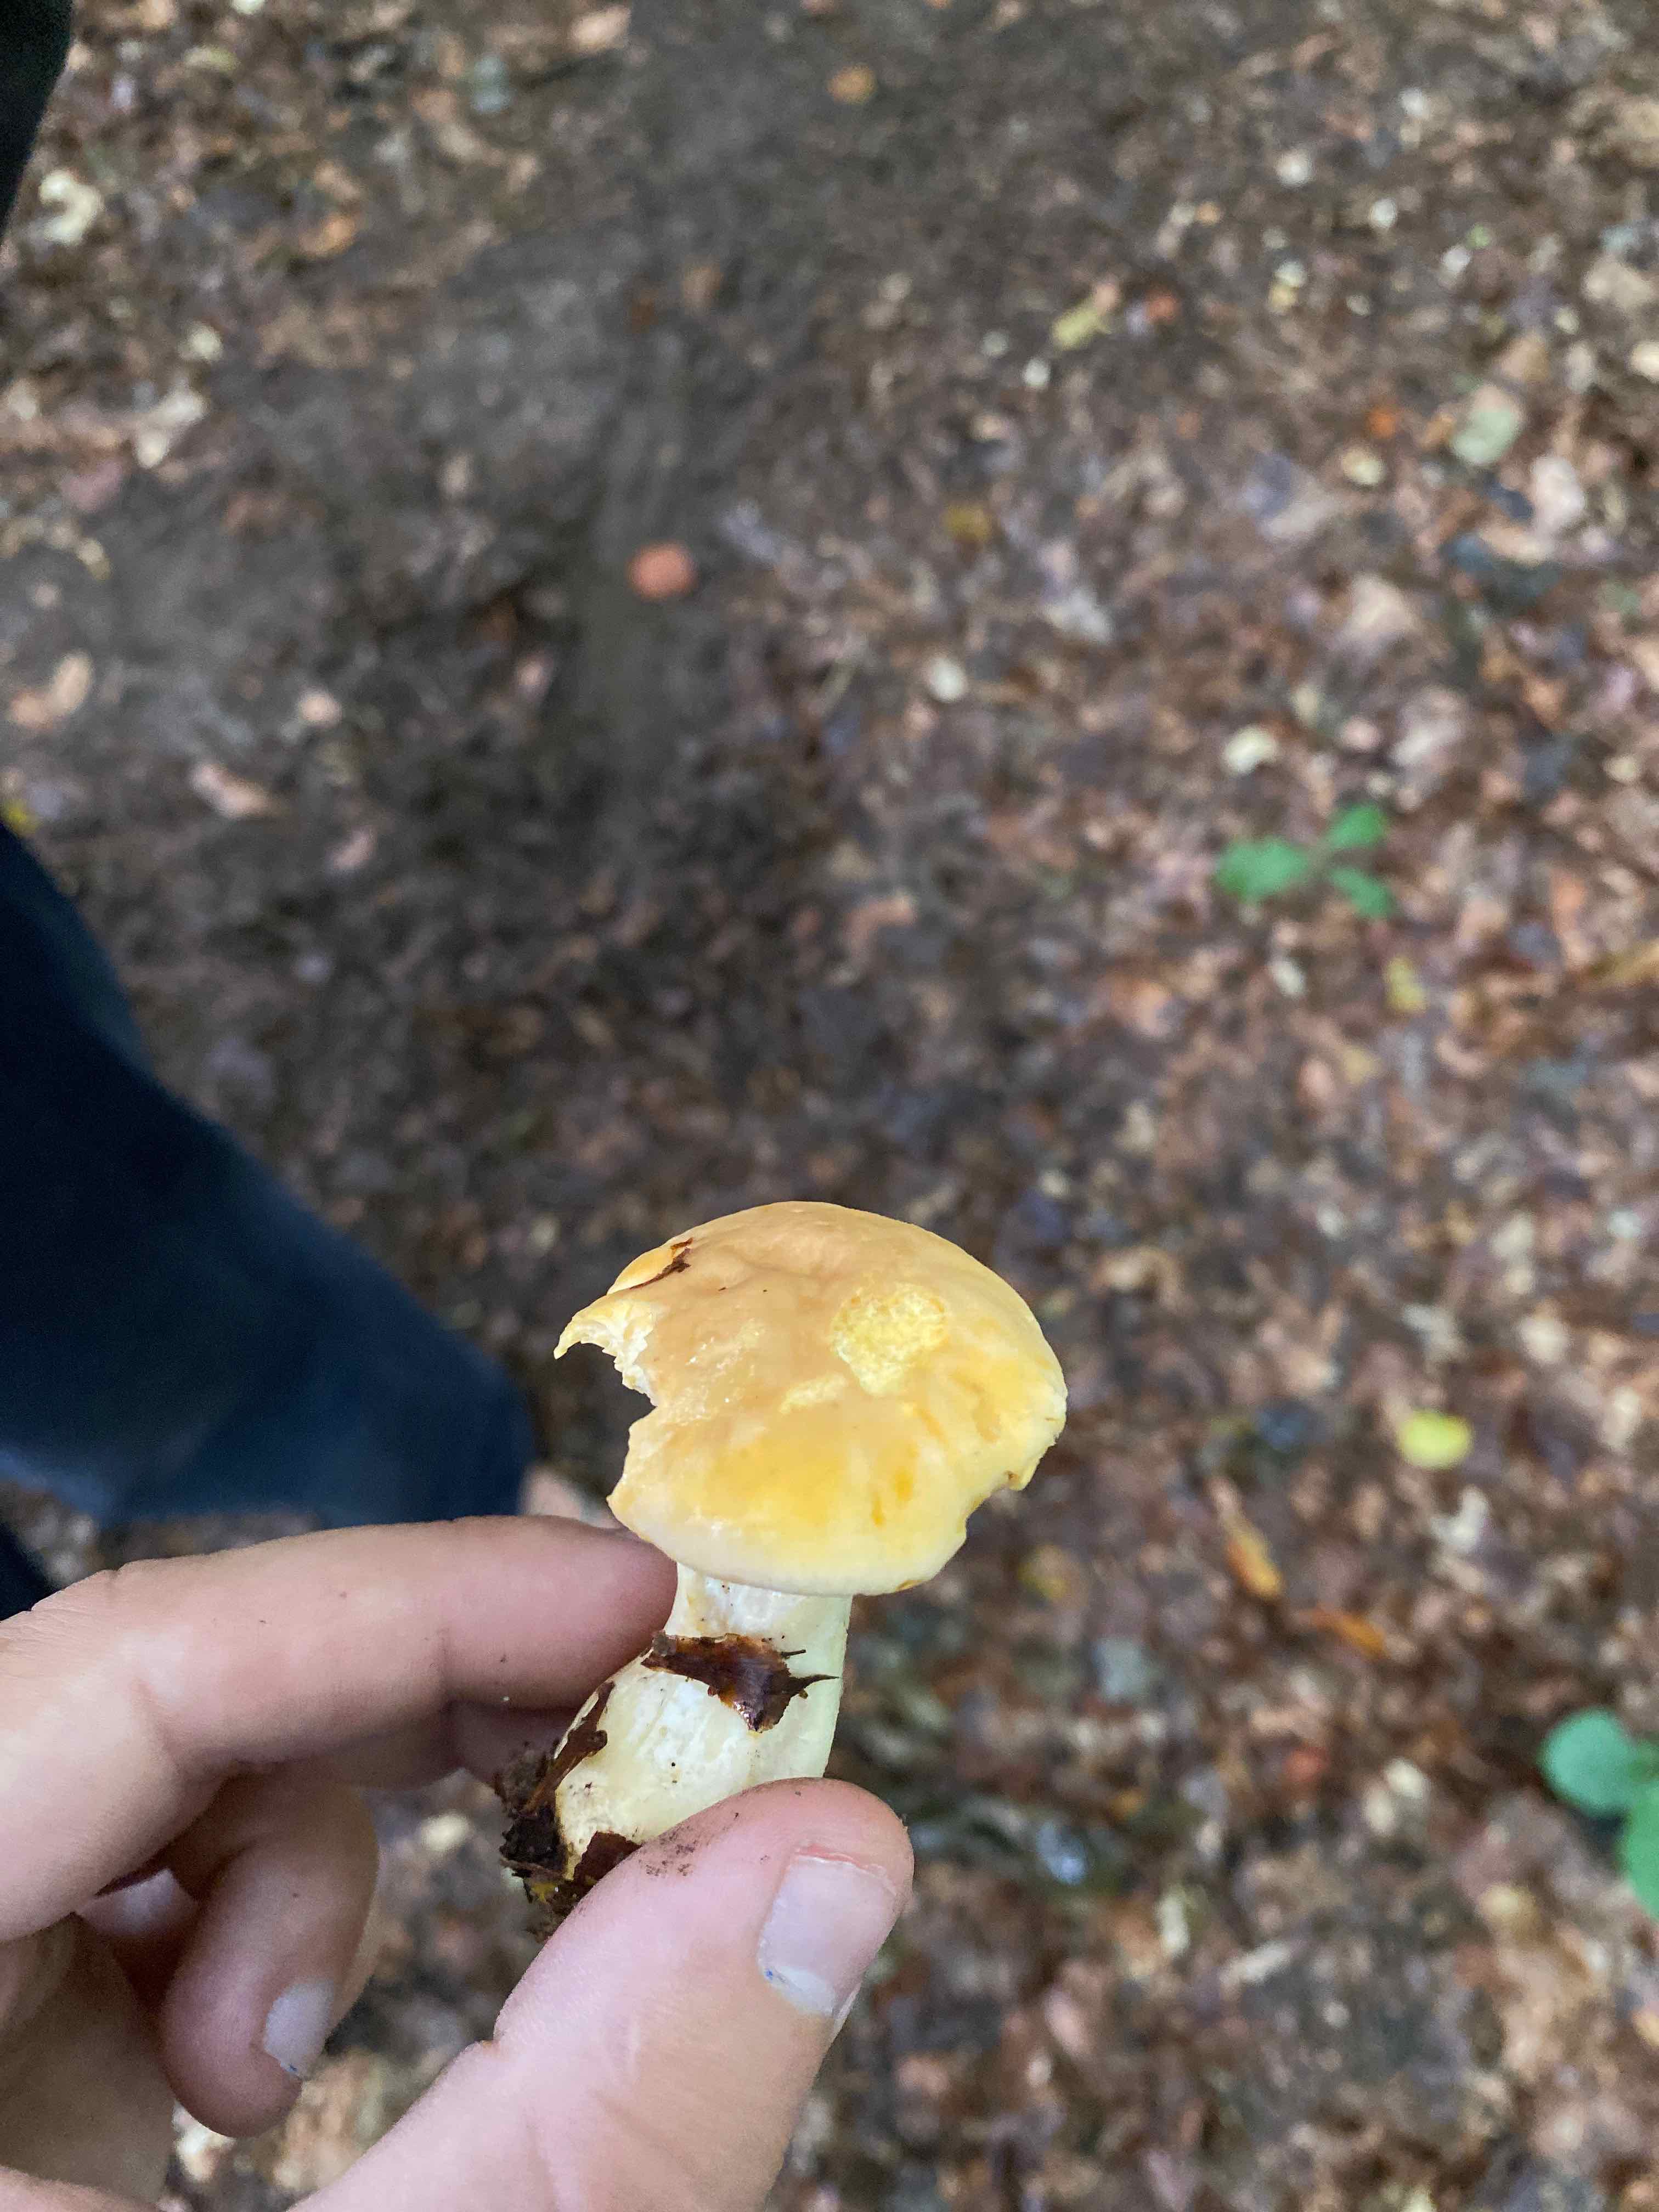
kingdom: Fungi
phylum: Basidiomycota
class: Agaricomycetes
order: Cantharellales
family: Hydnaceae
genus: Cantharellus
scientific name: Cantharellus pallens
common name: bleg kantarel
